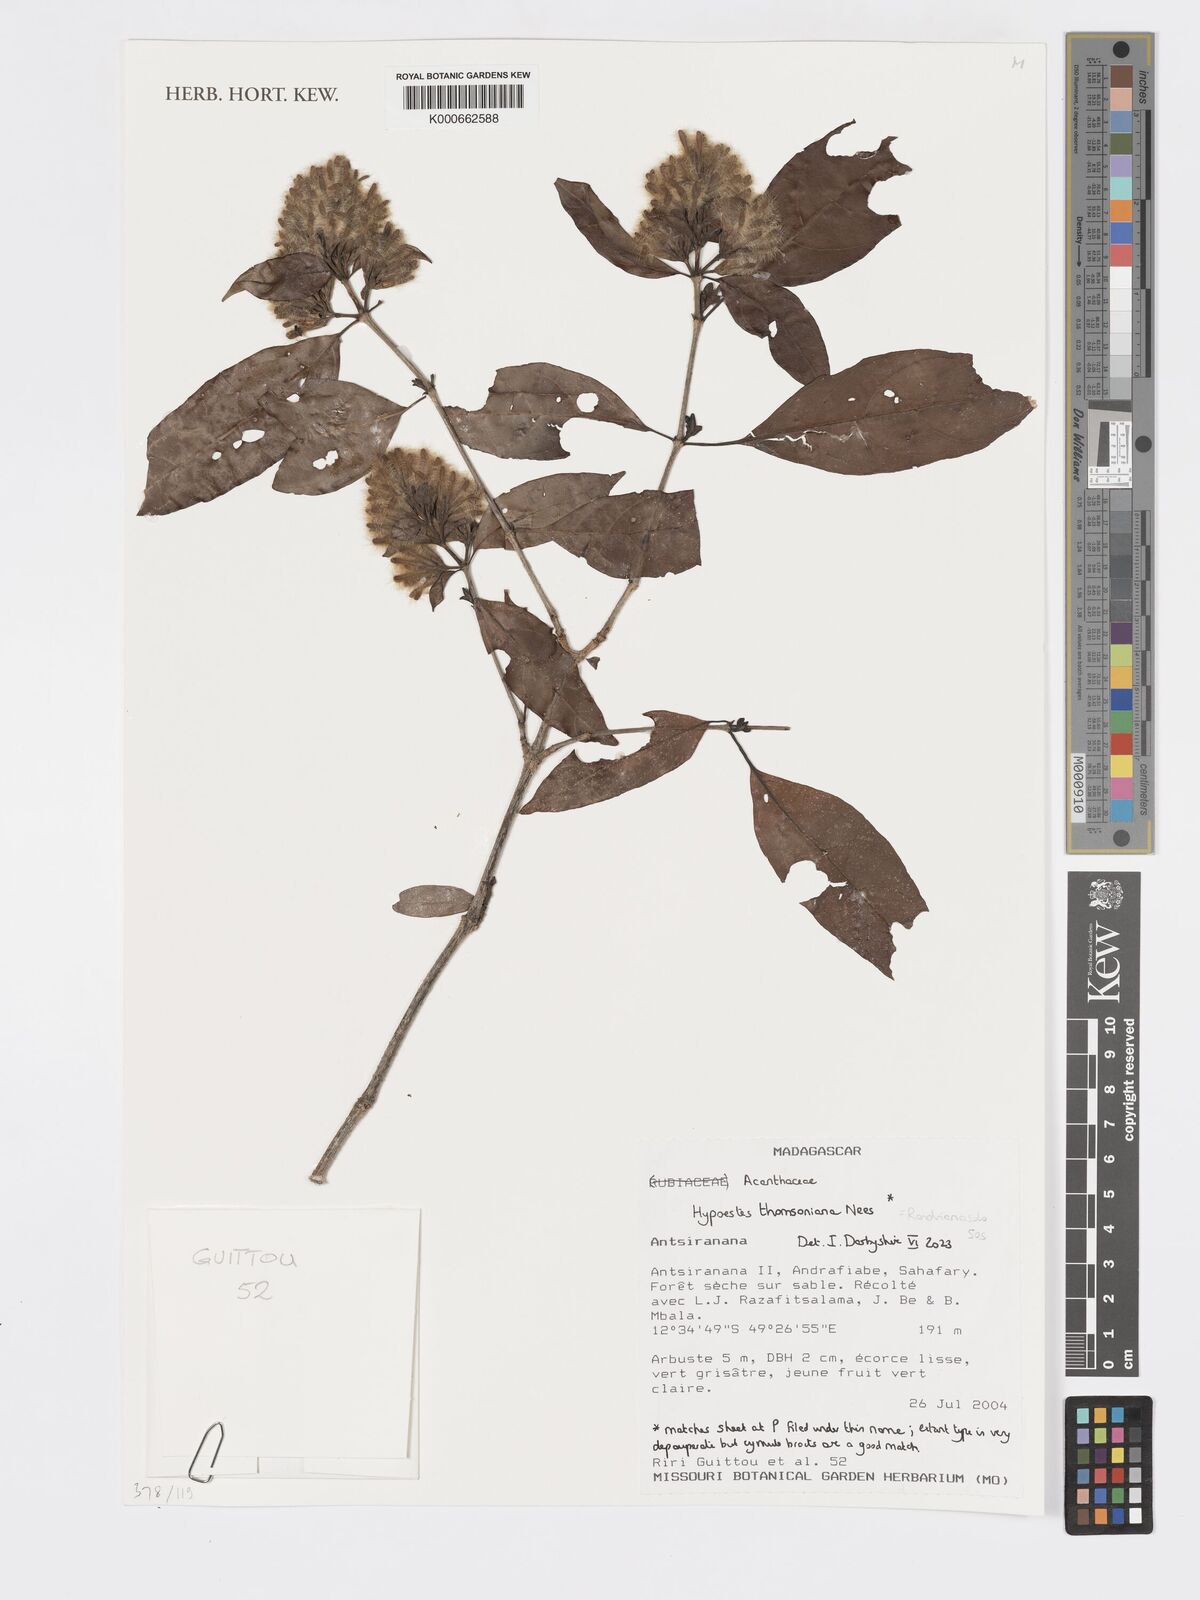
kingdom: Plantae
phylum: Tracheophyta
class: Magnoliopsida
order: Lamiales
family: Acanthaceae
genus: Hypoestes
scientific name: Hypoestes
